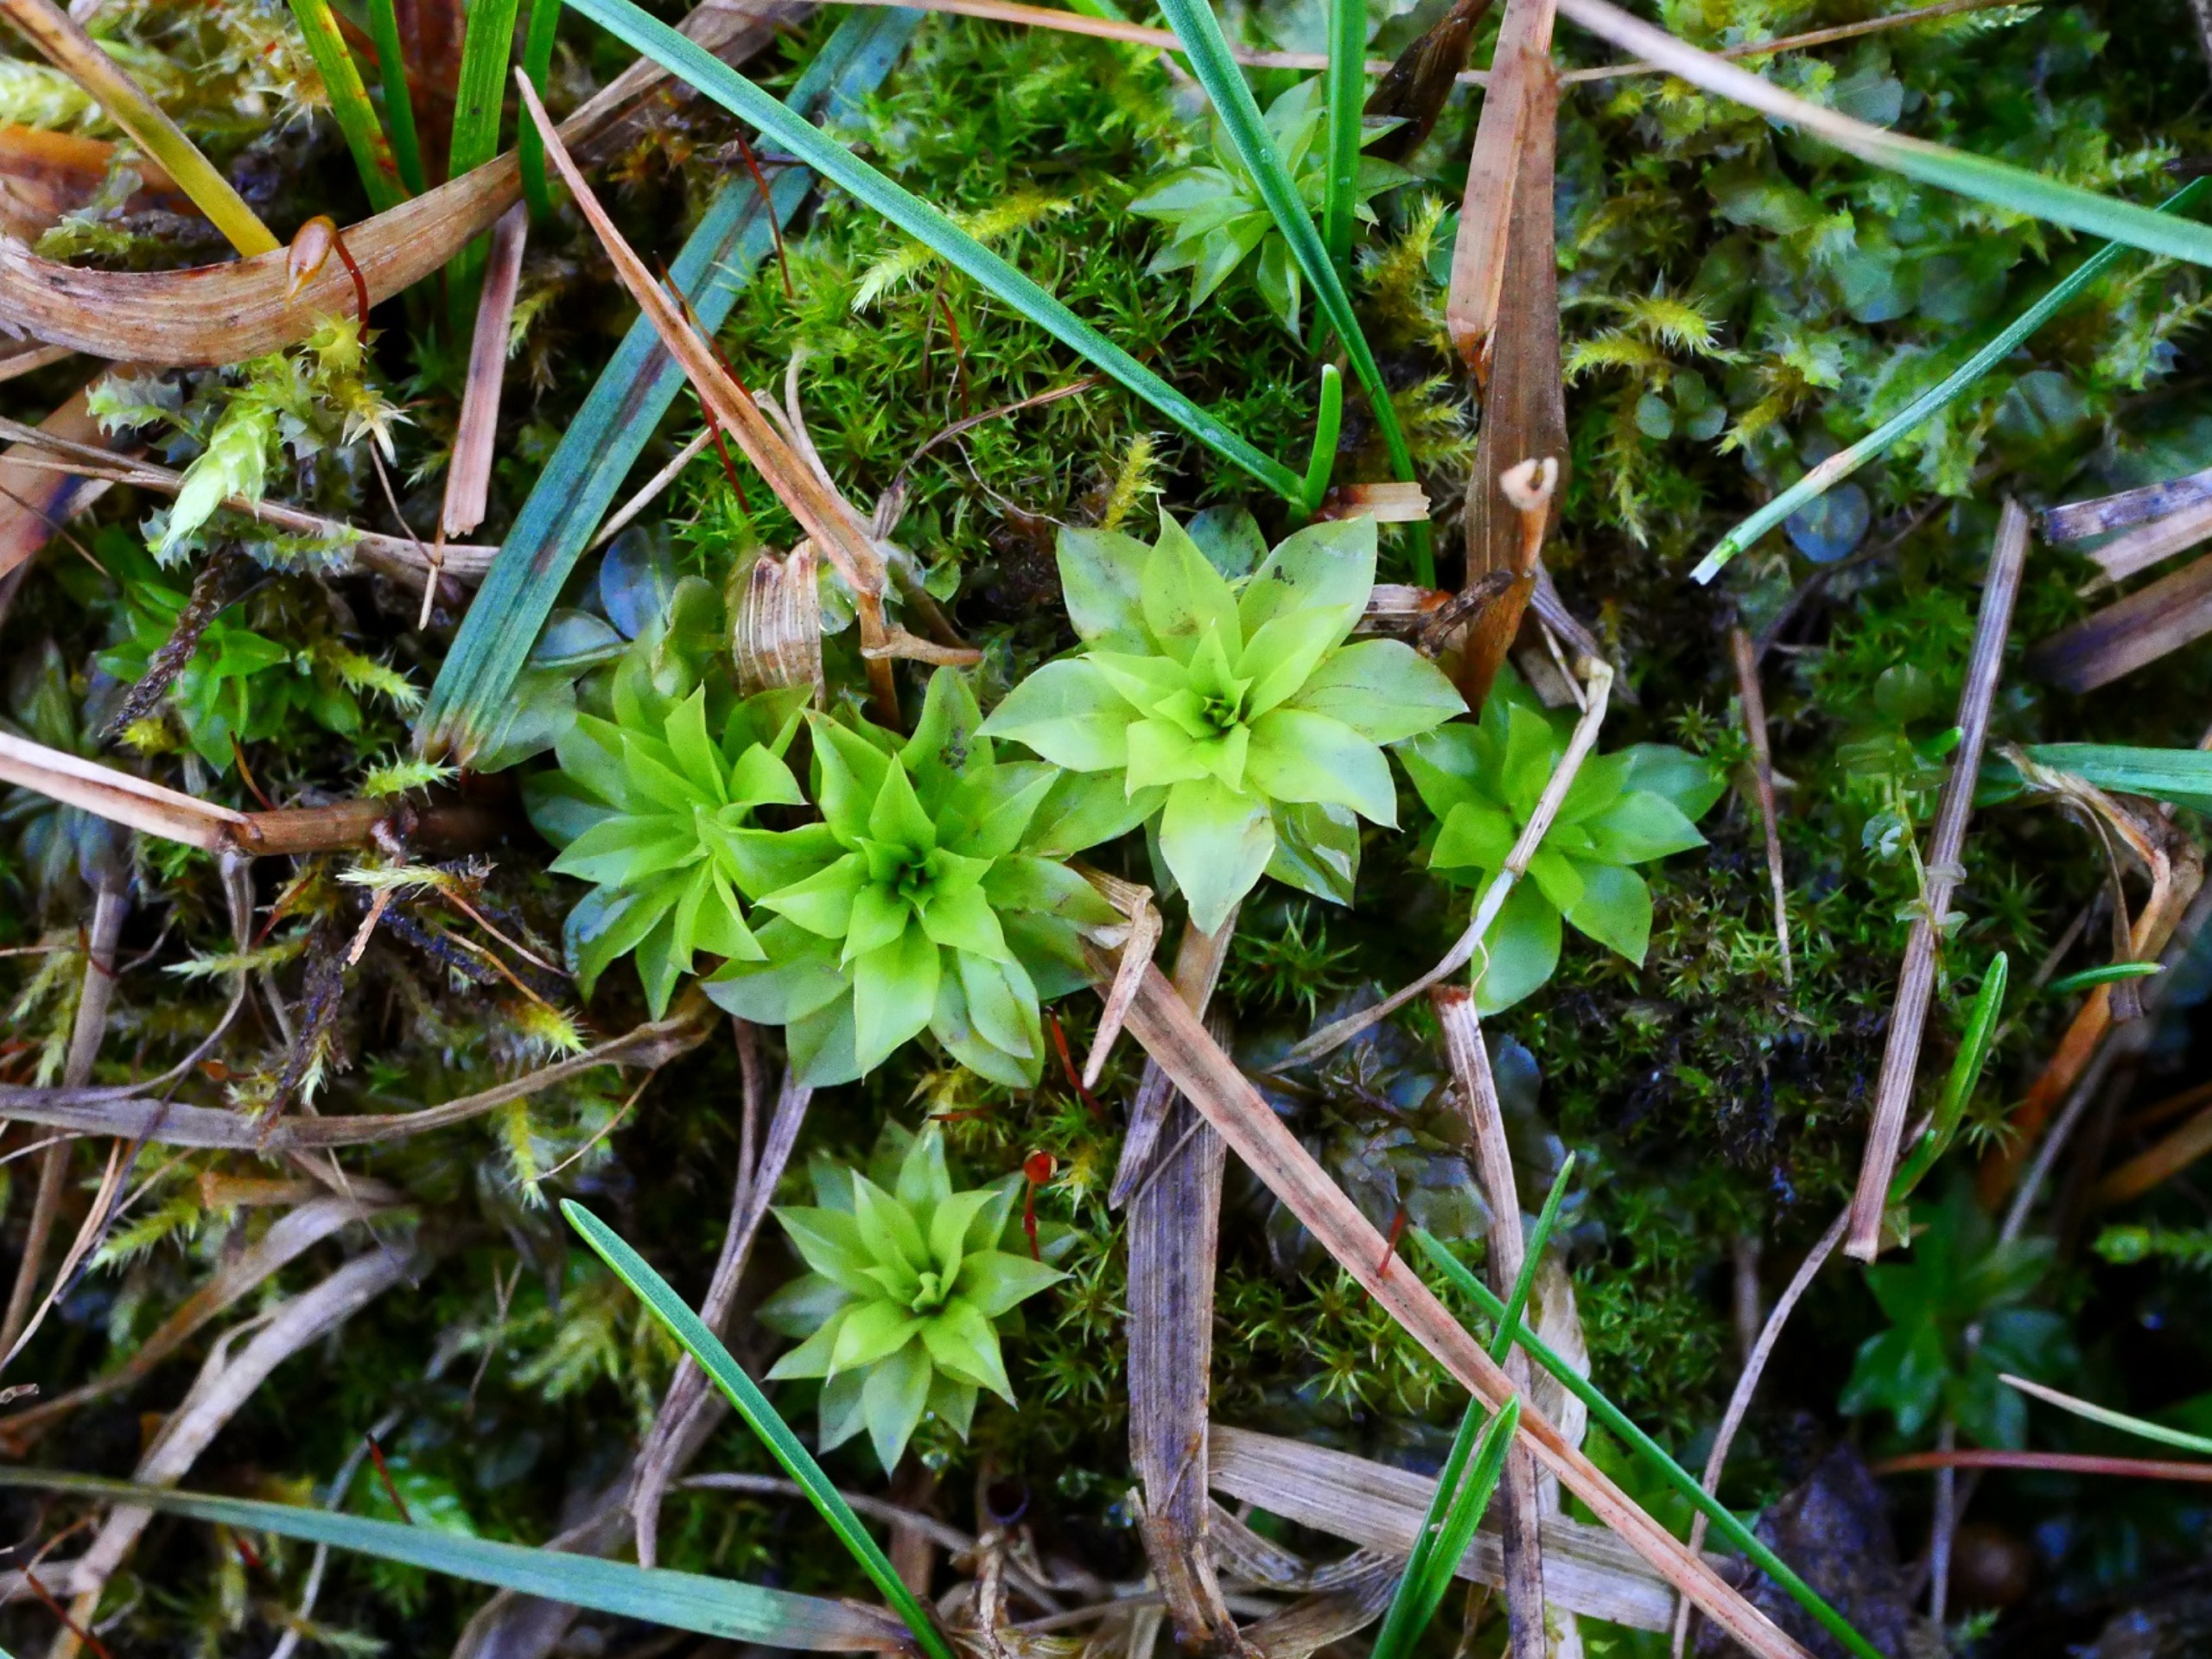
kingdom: Plantae
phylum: Bryophyta
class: Bryopsida
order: Bryales
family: Bryaceae
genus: Rhodobryum
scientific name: Rhodobryum roseum
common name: Stor rosetmos
